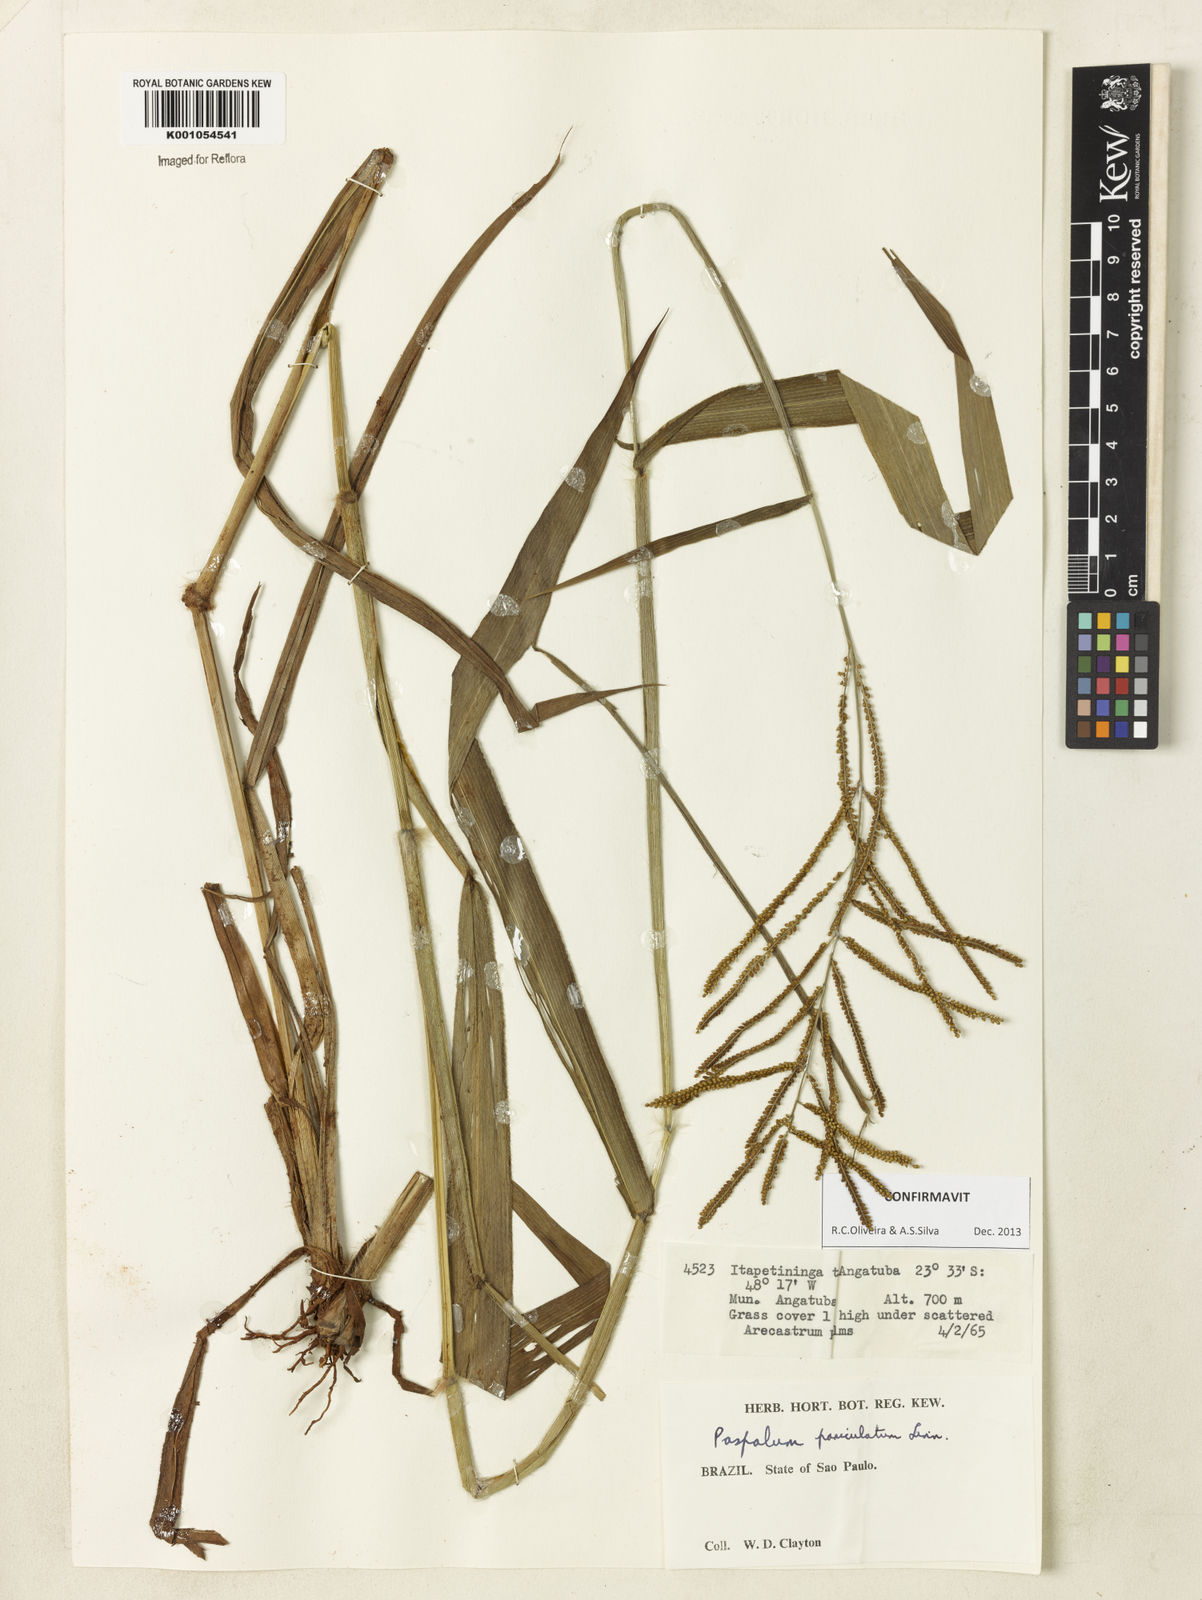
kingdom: Plantae
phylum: Tracheophyta
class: Liliopsida
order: Poales
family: Poaceae
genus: Paspalum
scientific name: Paspalum paniculatum
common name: Arrocillo
